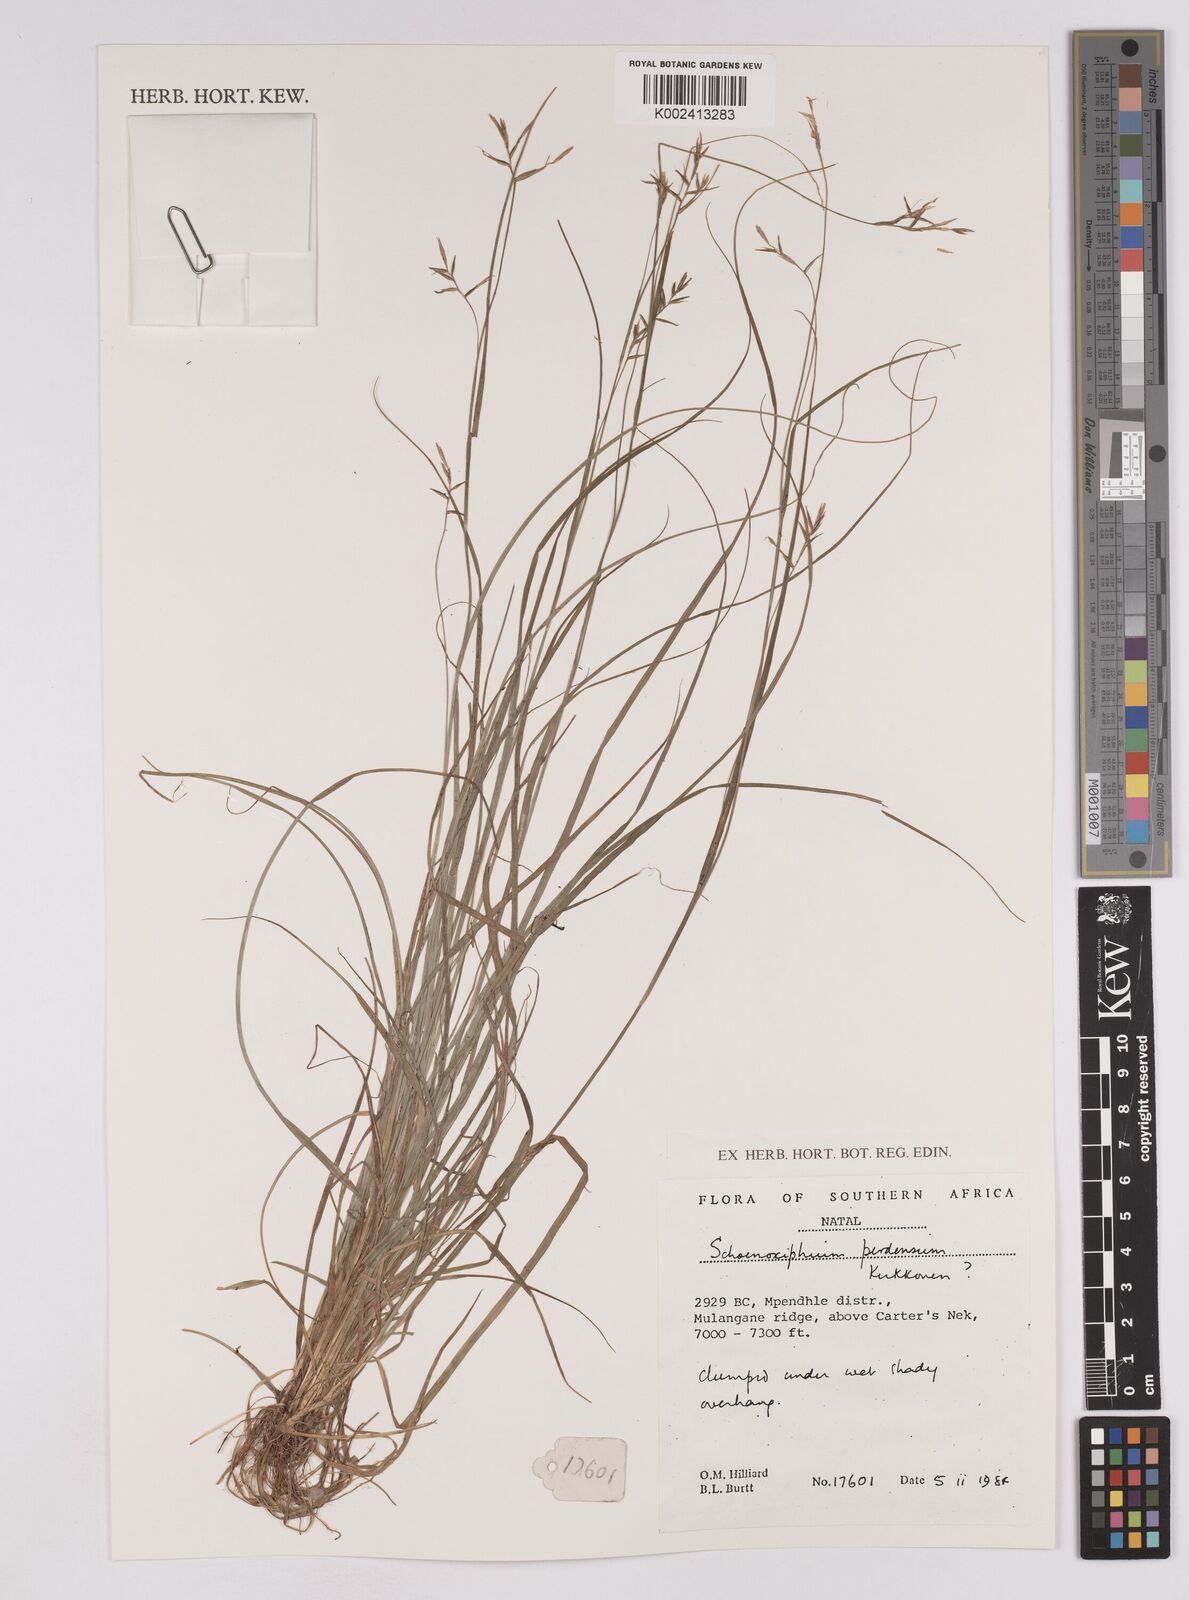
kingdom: Plantae
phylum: Tracheophyta
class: Liliopsida
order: Poales
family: Cyperaceae
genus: Carex
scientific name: Carex perdensa
